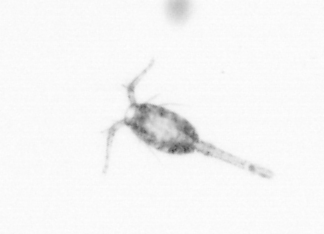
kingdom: Animalia
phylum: Arthropoda
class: Copepoda
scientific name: Copepoda
